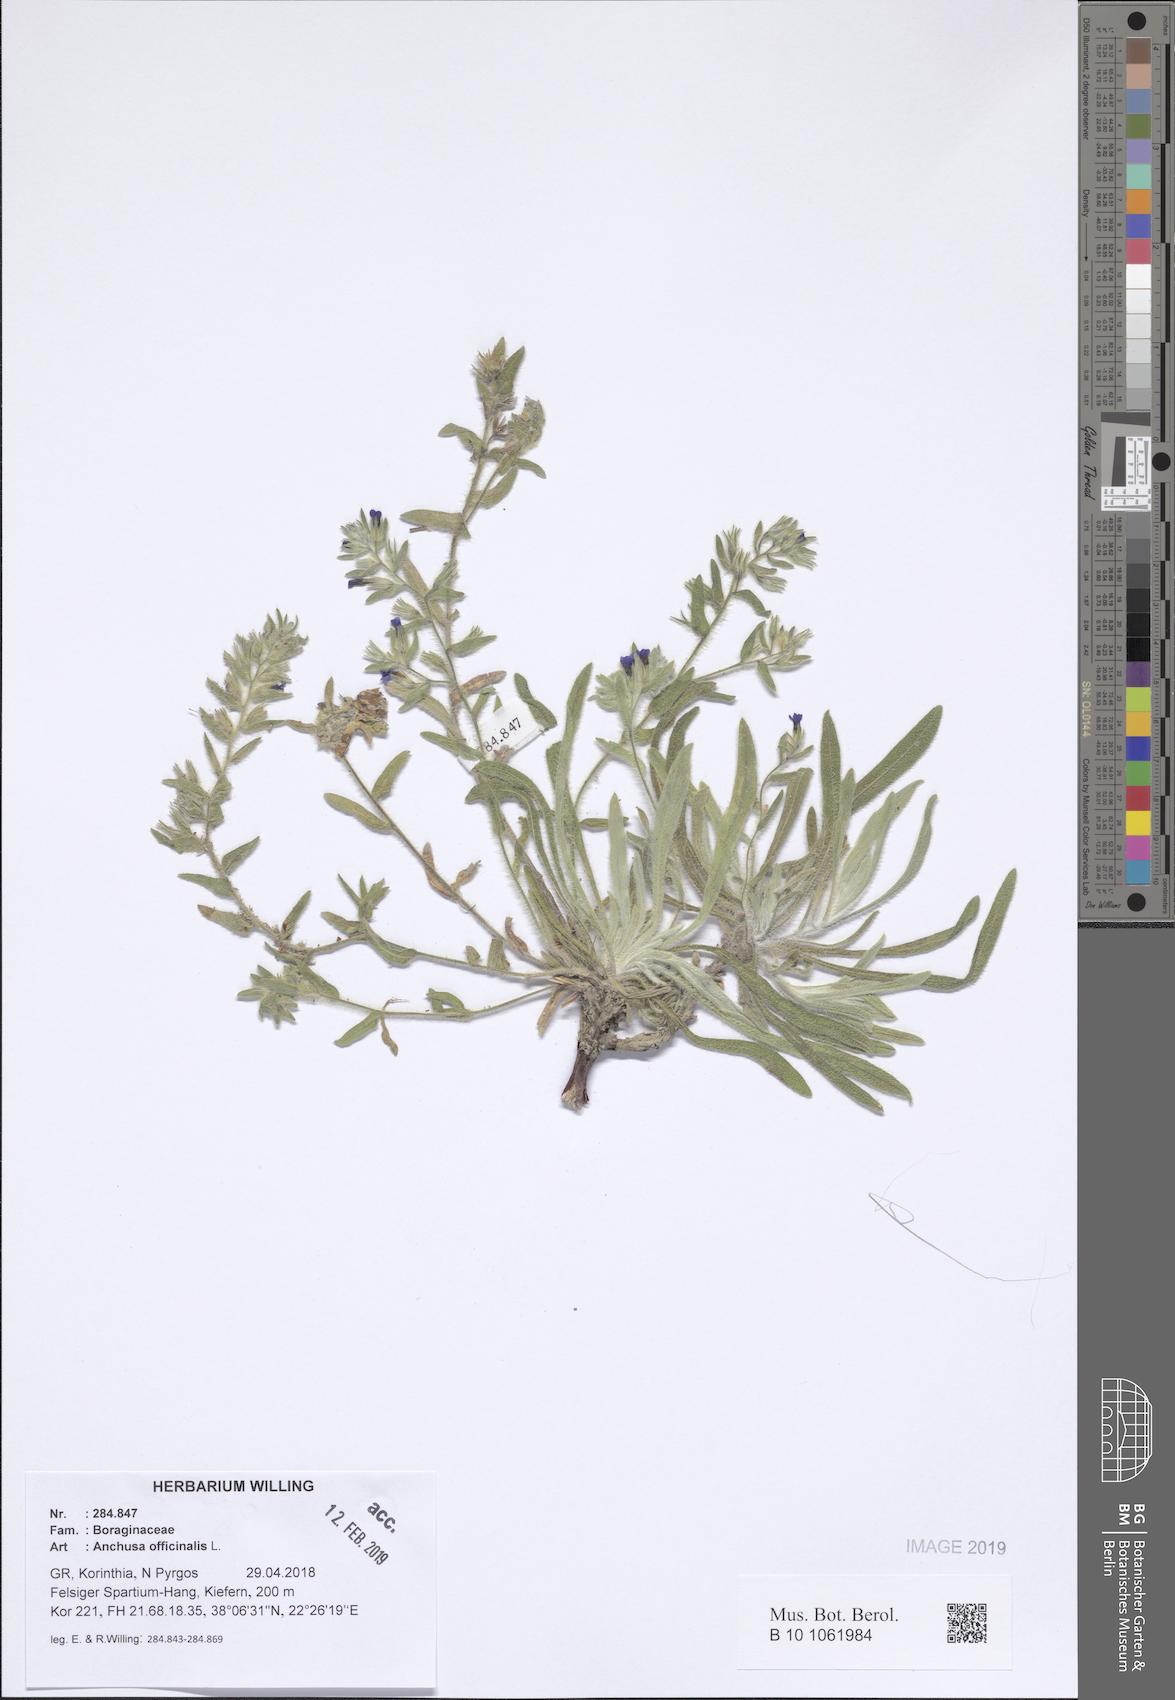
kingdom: Plantae
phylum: Tracheophyta
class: Magnoliopsida
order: Boraginales
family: Boraginaceae
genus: Anchusa
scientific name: Anchusa officinalis
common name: Alkanet
